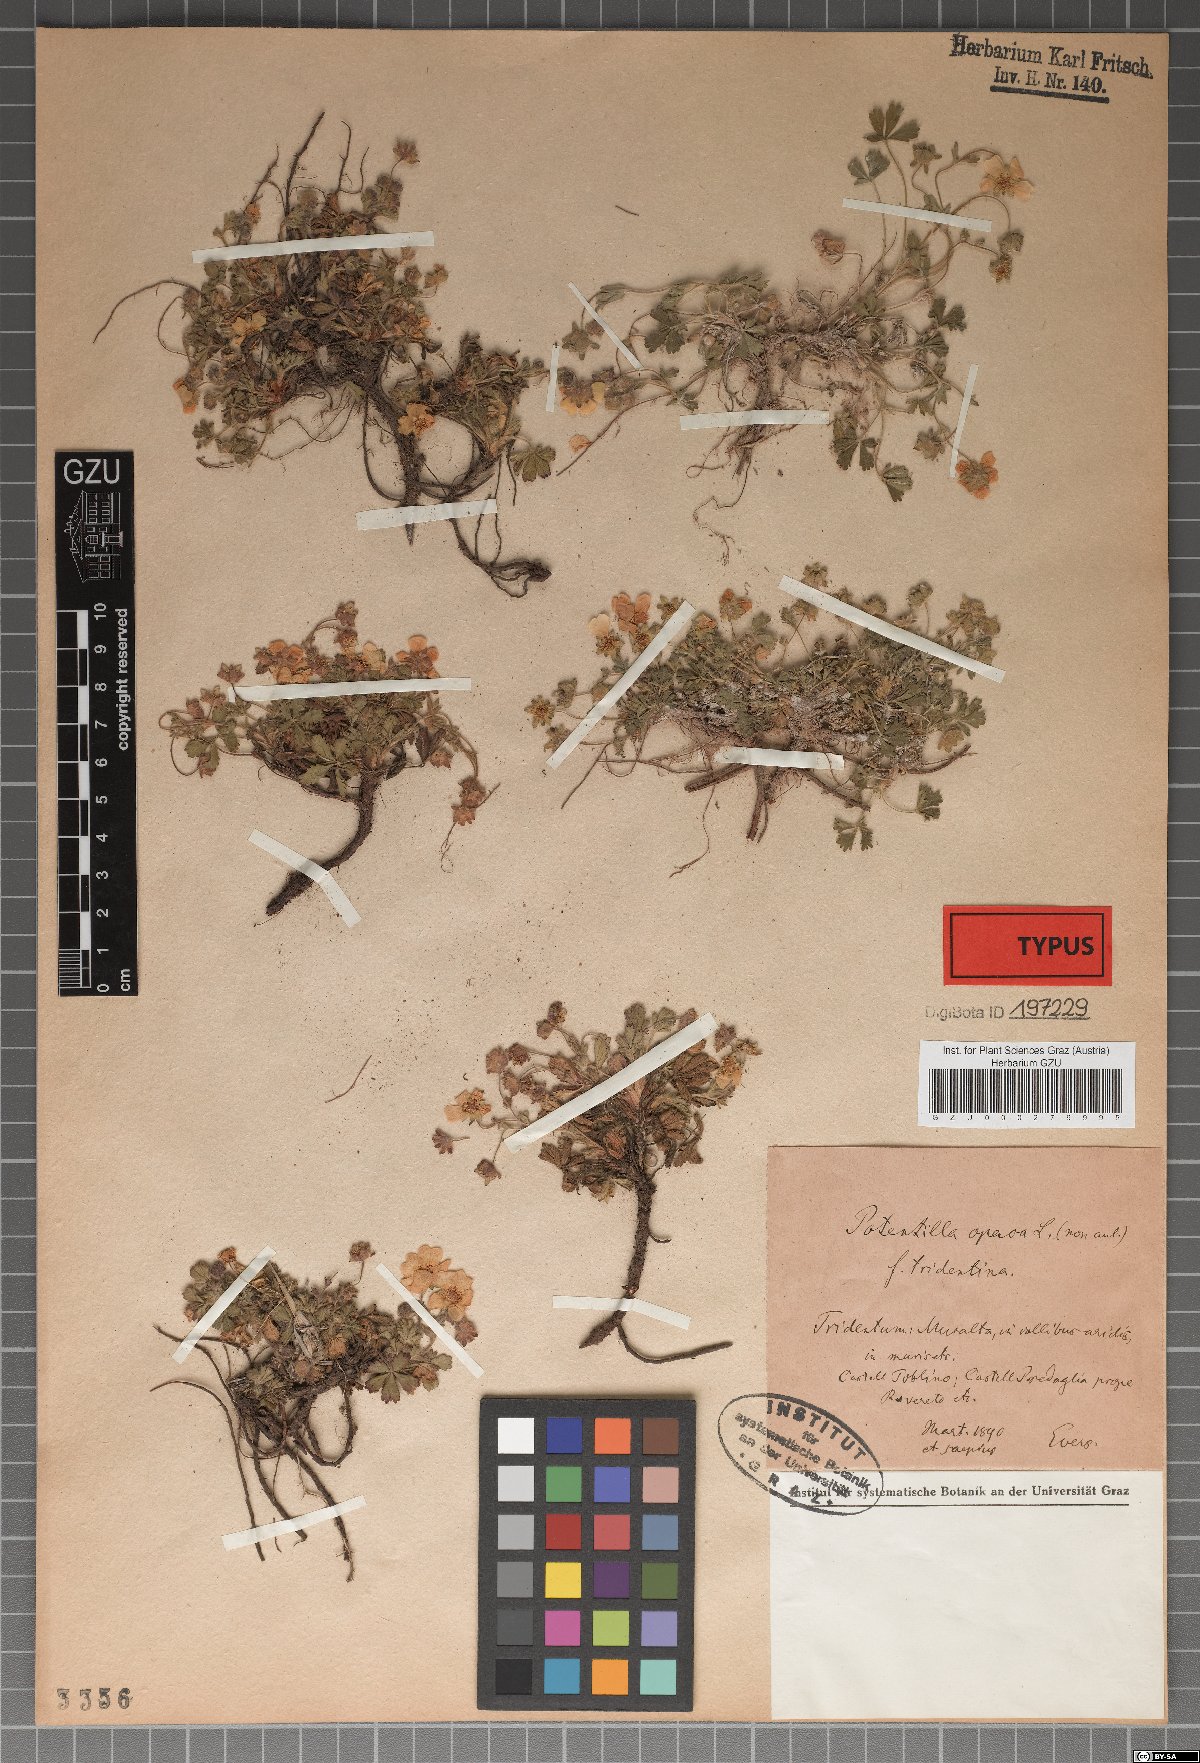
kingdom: Plantae
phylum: Tracheophyta
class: Magnoliopsida
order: Rosales
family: Rosaceae
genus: Potentilla
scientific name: Potentilla
